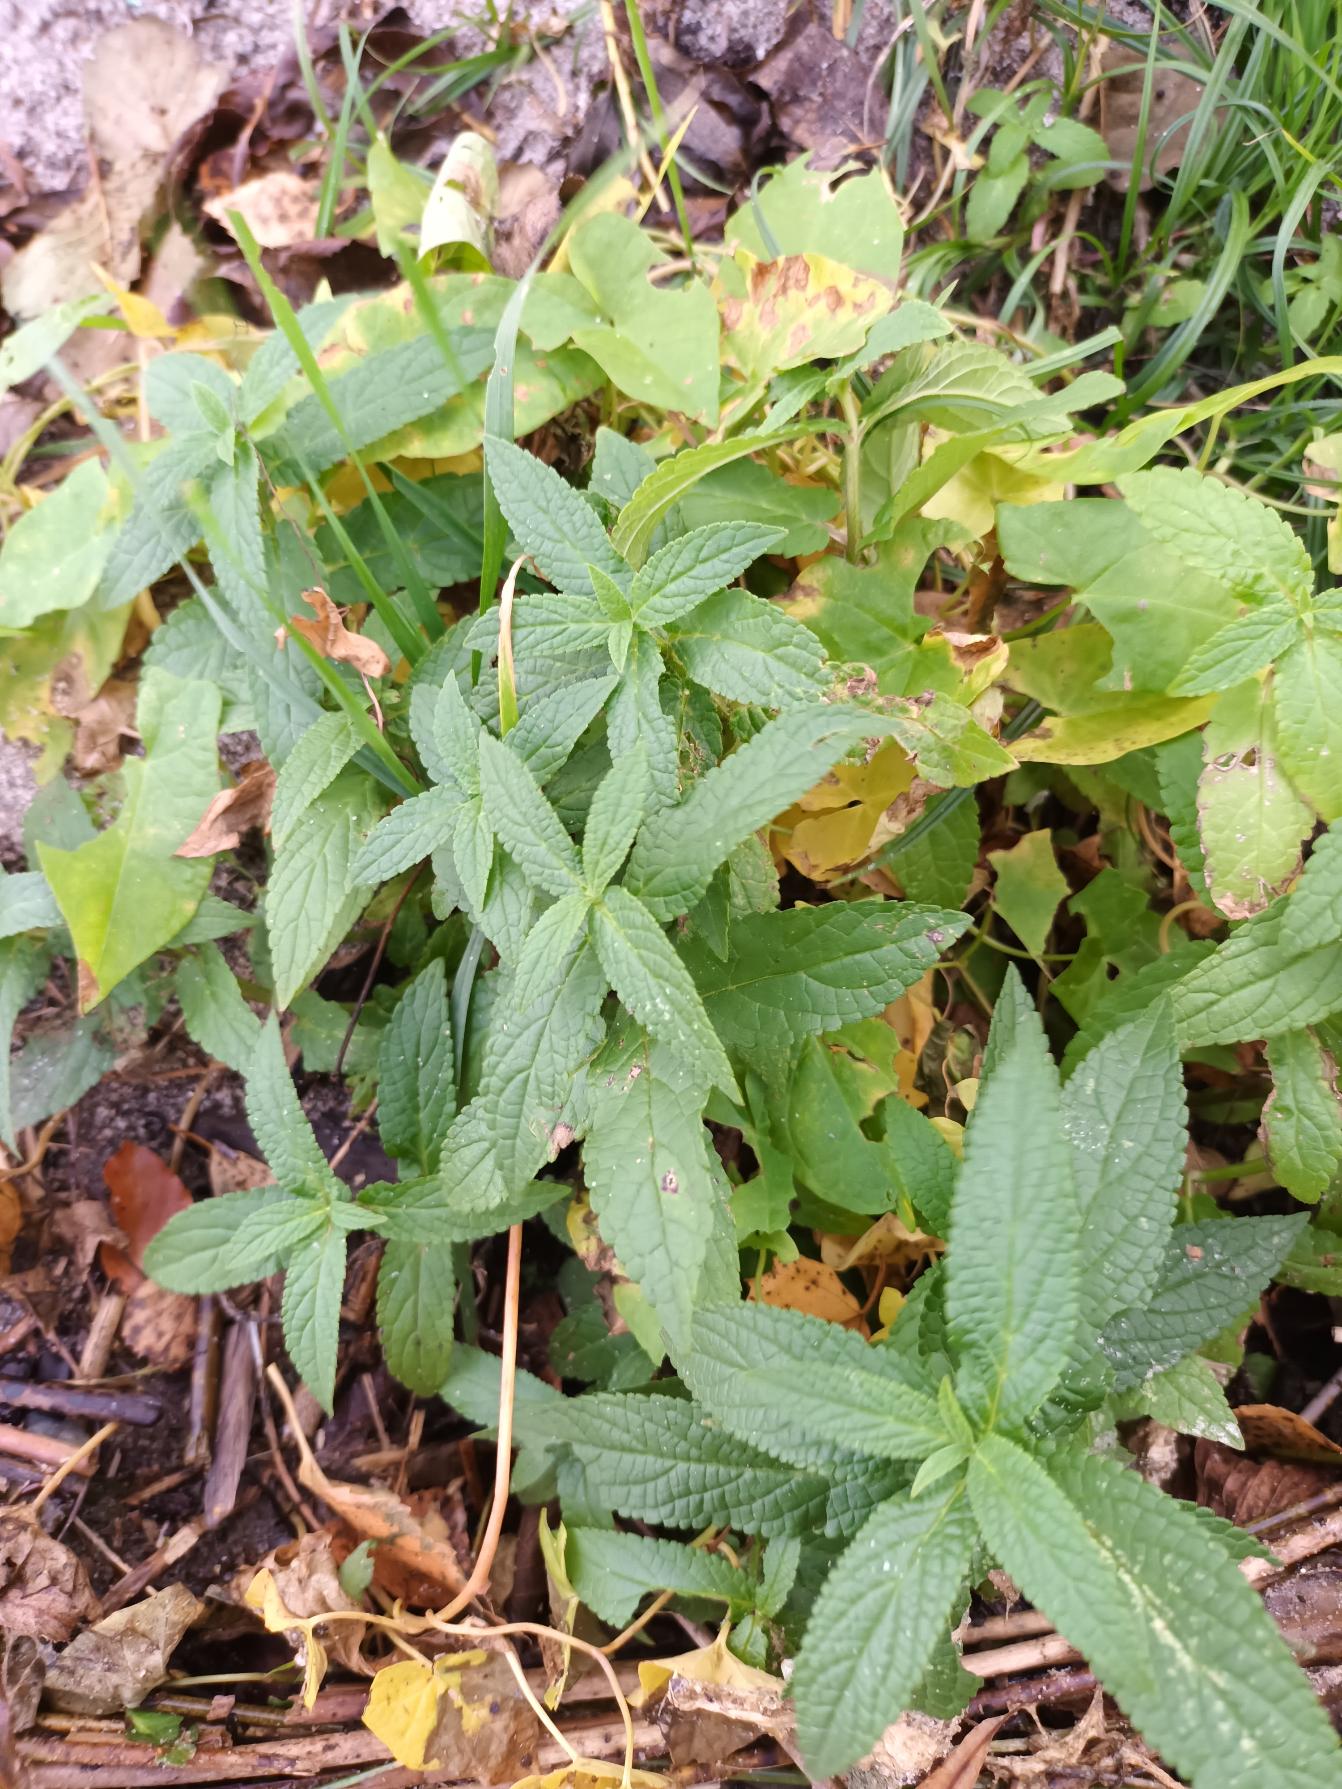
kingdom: Plantae
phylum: Tracheophyta
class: Magnoliopsida
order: Lamiales
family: Lamiaceae
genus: Stachys
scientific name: Stachys palustris
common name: Kær-galtetand
